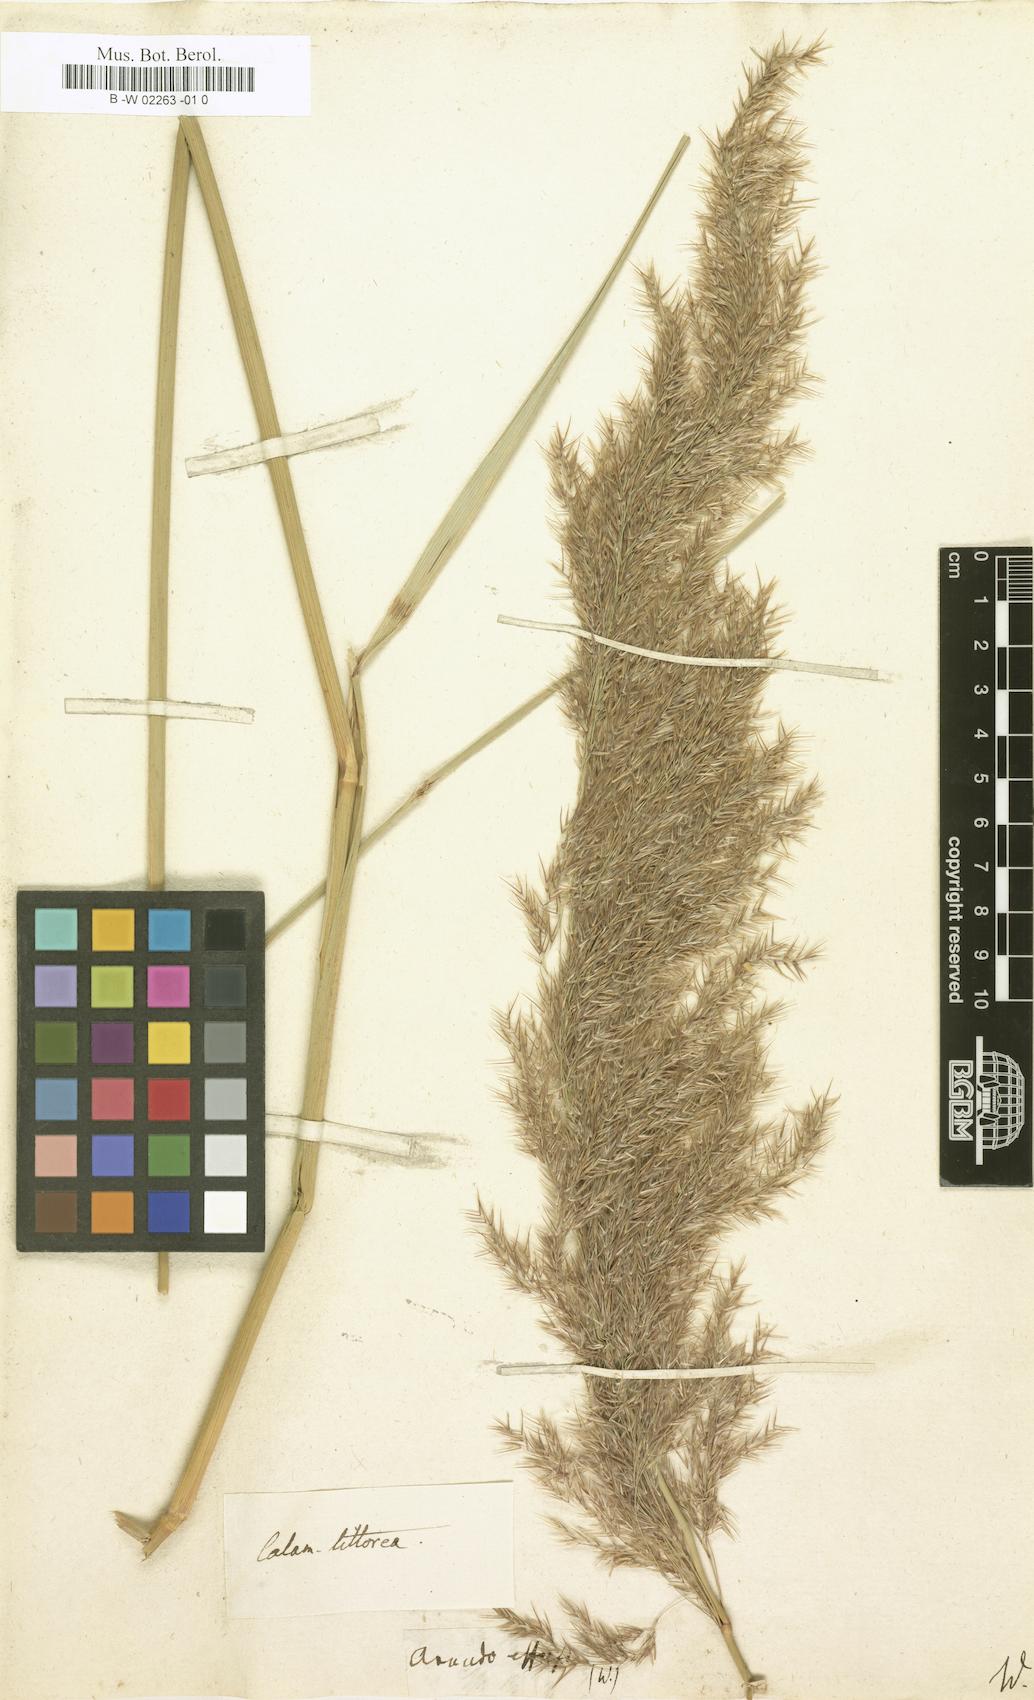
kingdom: Plantae
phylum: Tracheophyta
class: Liliopsida
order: Poales
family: Poaceae
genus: Calamagrostis
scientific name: Calamagrostis pseudophragmites
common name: Coastal small-reed
